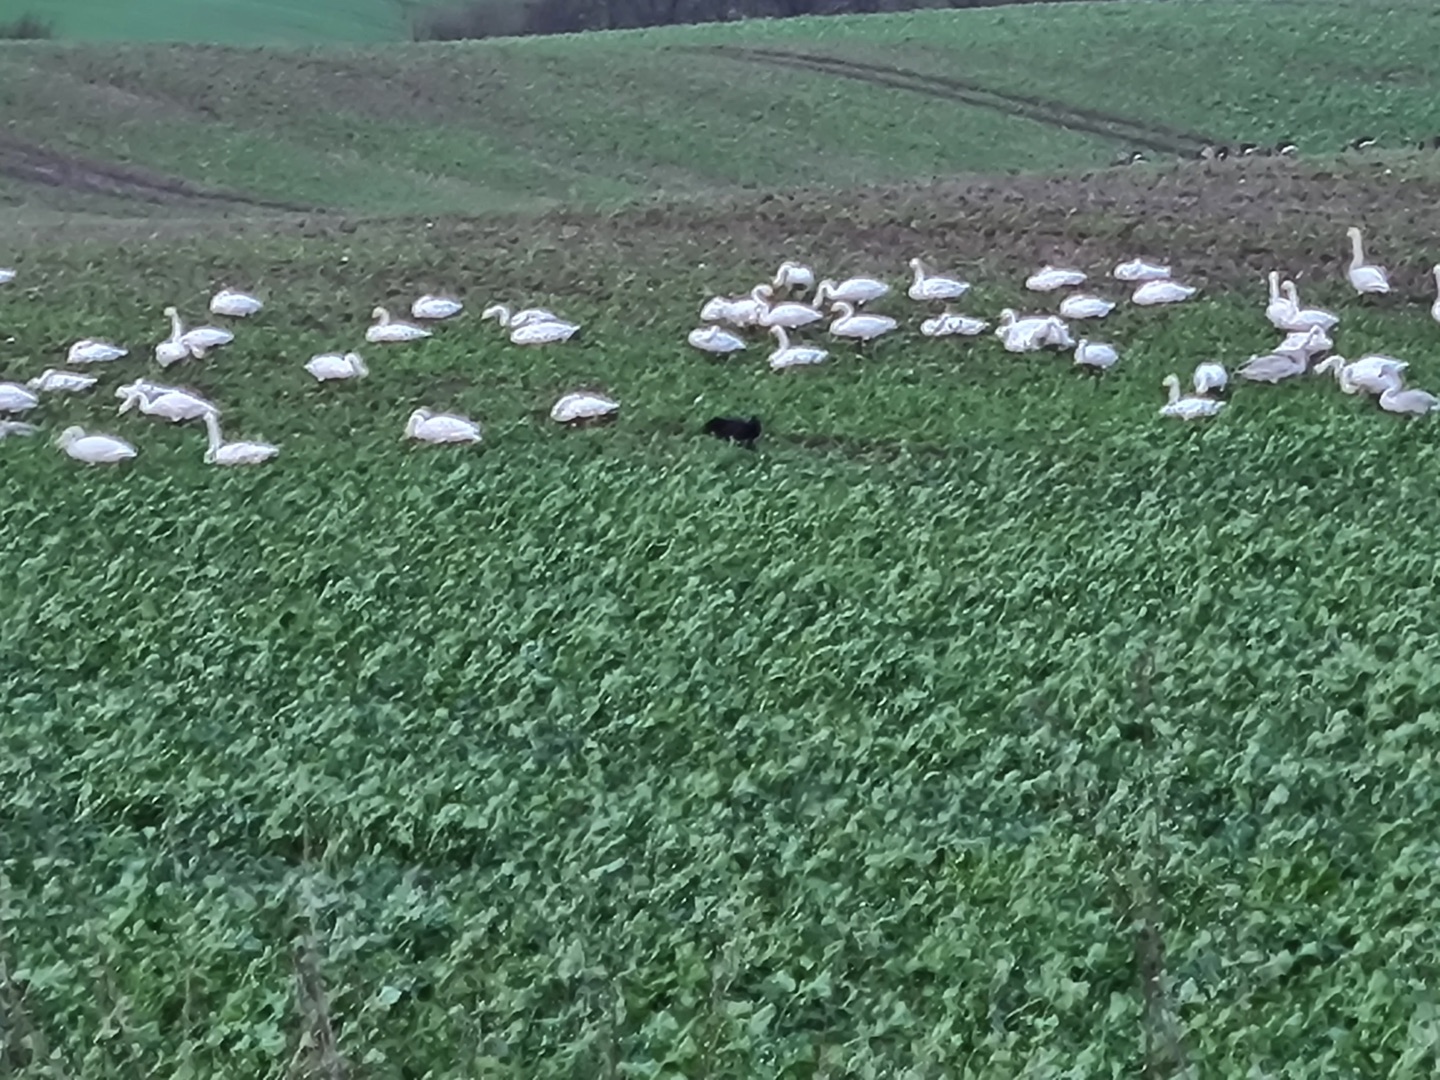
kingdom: Animalia
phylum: Chordata
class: Aves
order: Anseriformes
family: Anatidae
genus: Cygnus
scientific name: Cygnus cygnus
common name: Sangsvane
